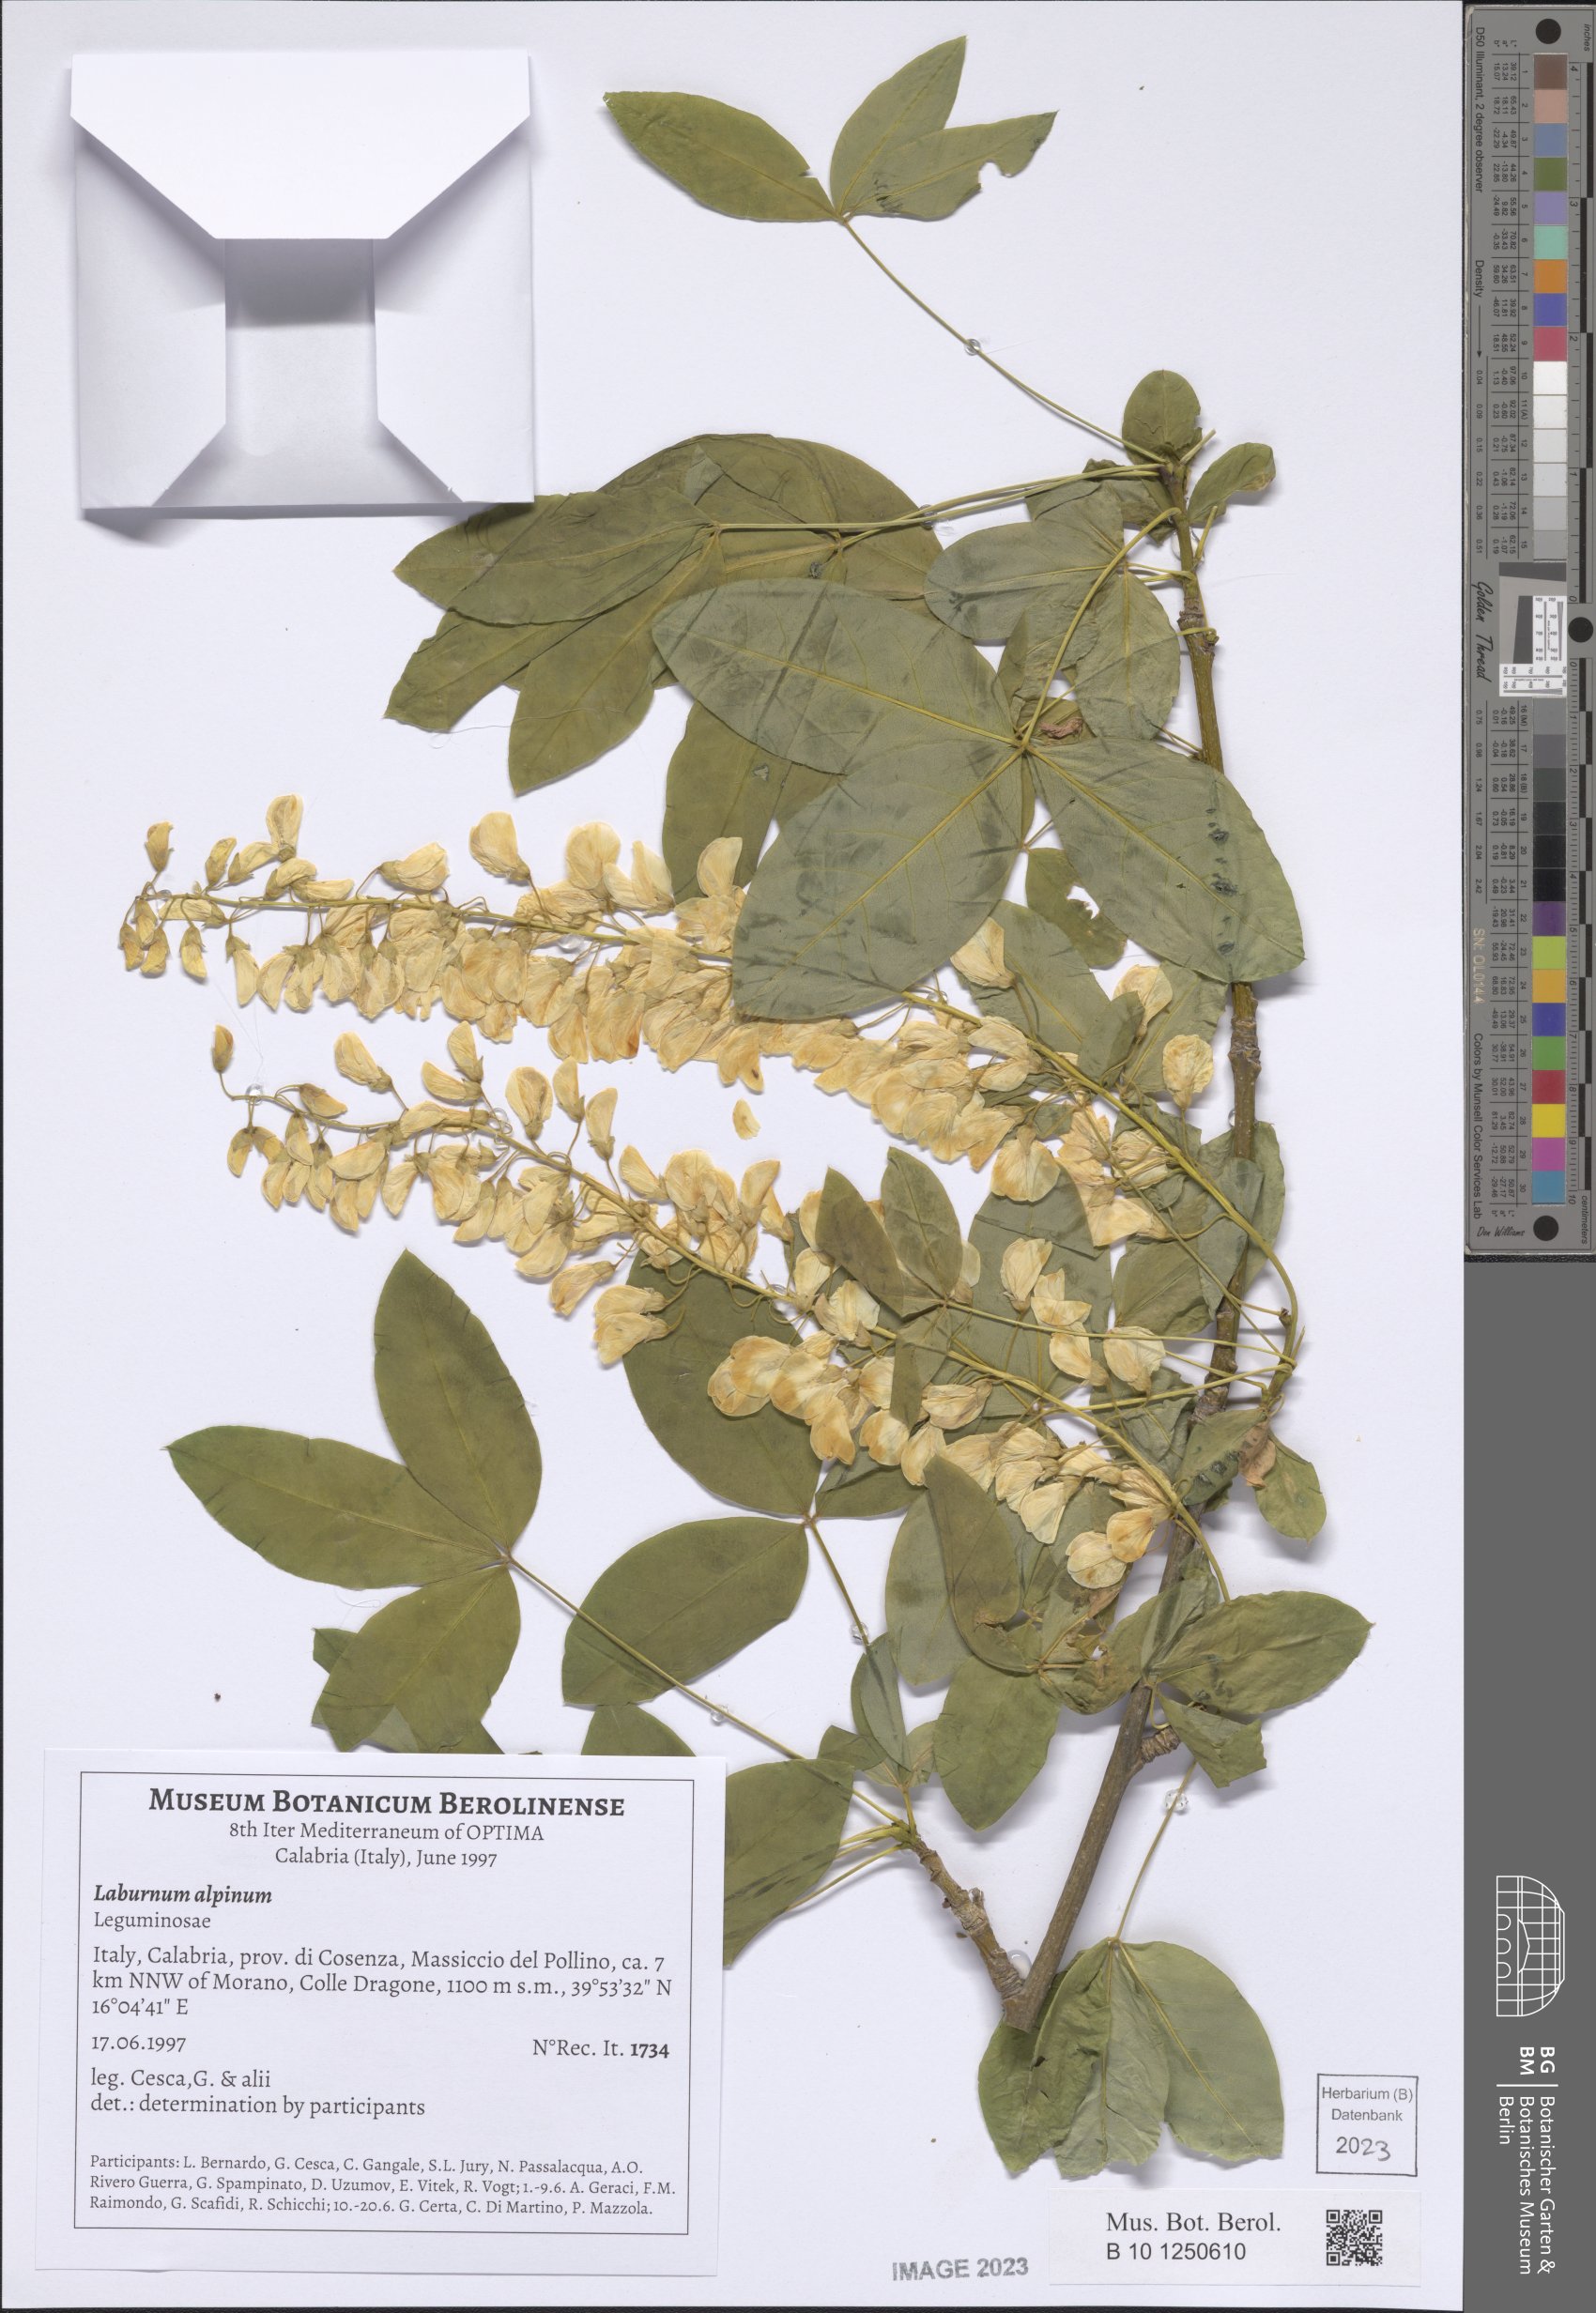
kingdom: Plantae
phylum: Tracheophyta
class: Magnoliopsida
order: Fabales
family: Fabaceae
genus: Laburnum
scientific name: Laburnum alpinum
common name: Scottish laburnum
